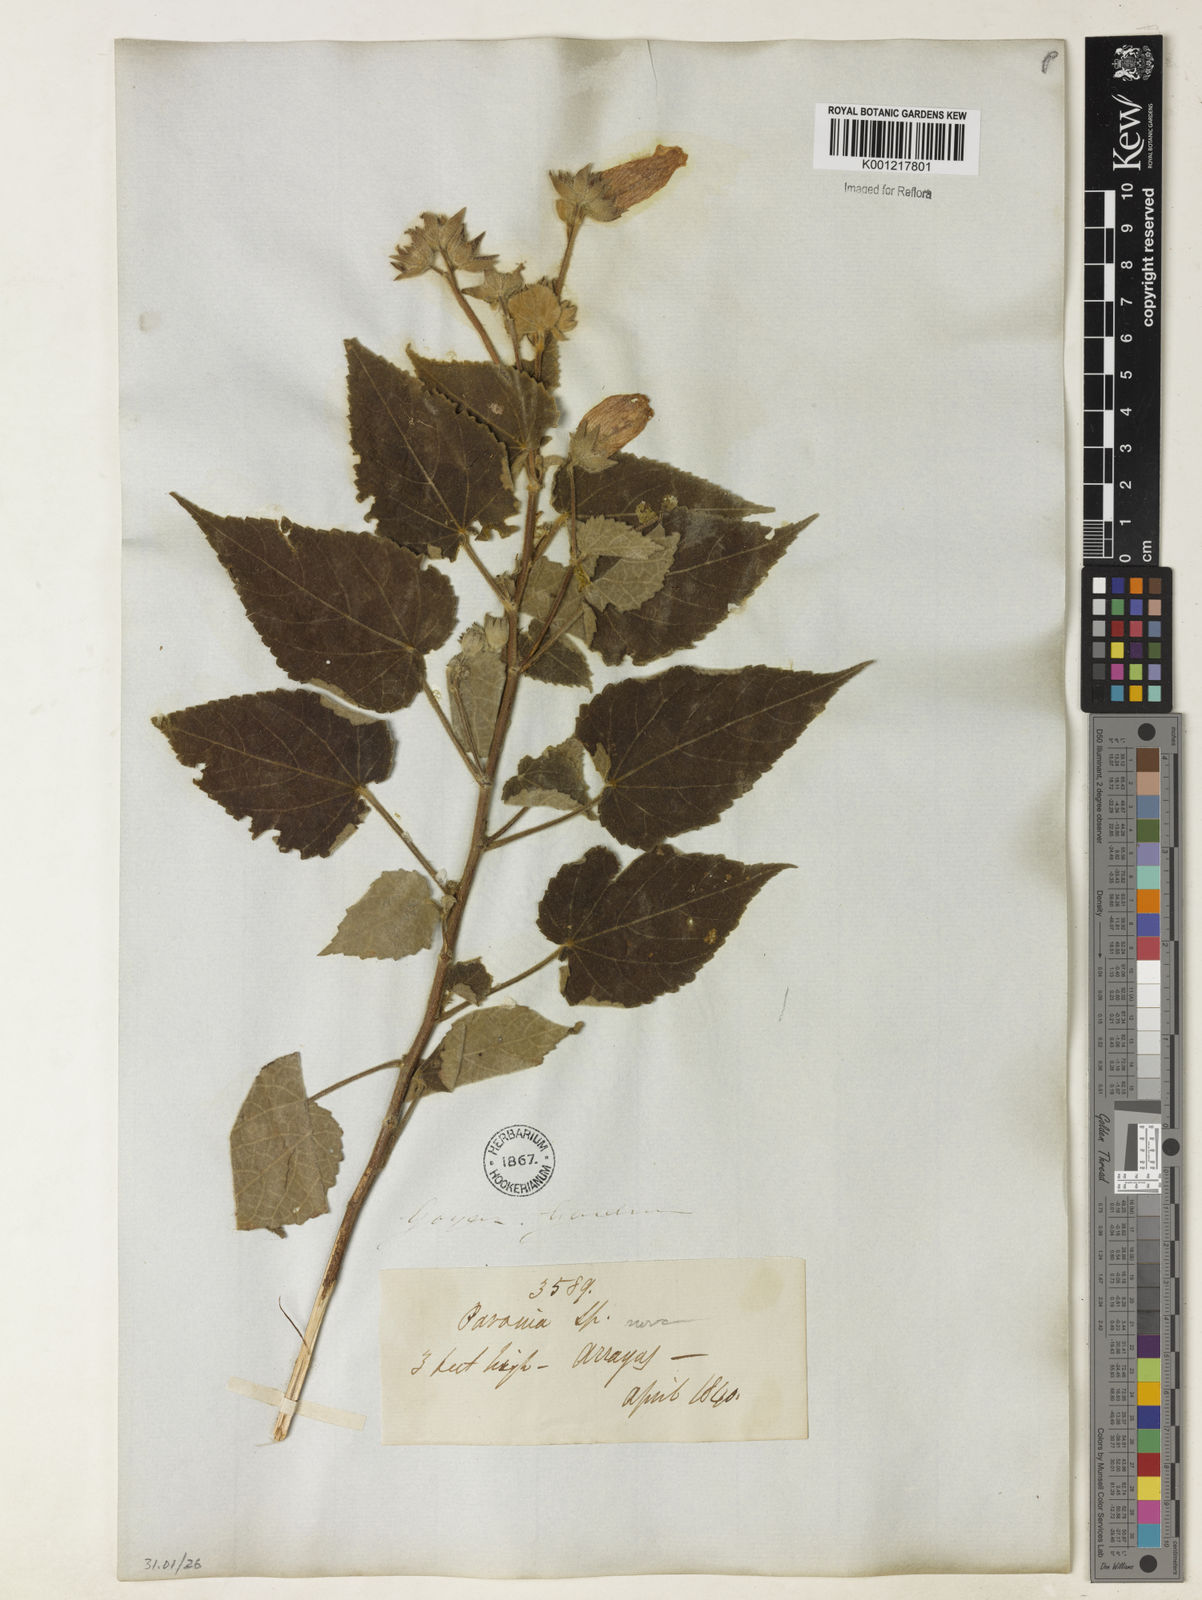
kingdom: Plantae
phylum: Tracheophyta
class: Magnoliopsida
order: Malvales
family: Malvaceae
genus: Pavonia
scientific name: Pavonia
